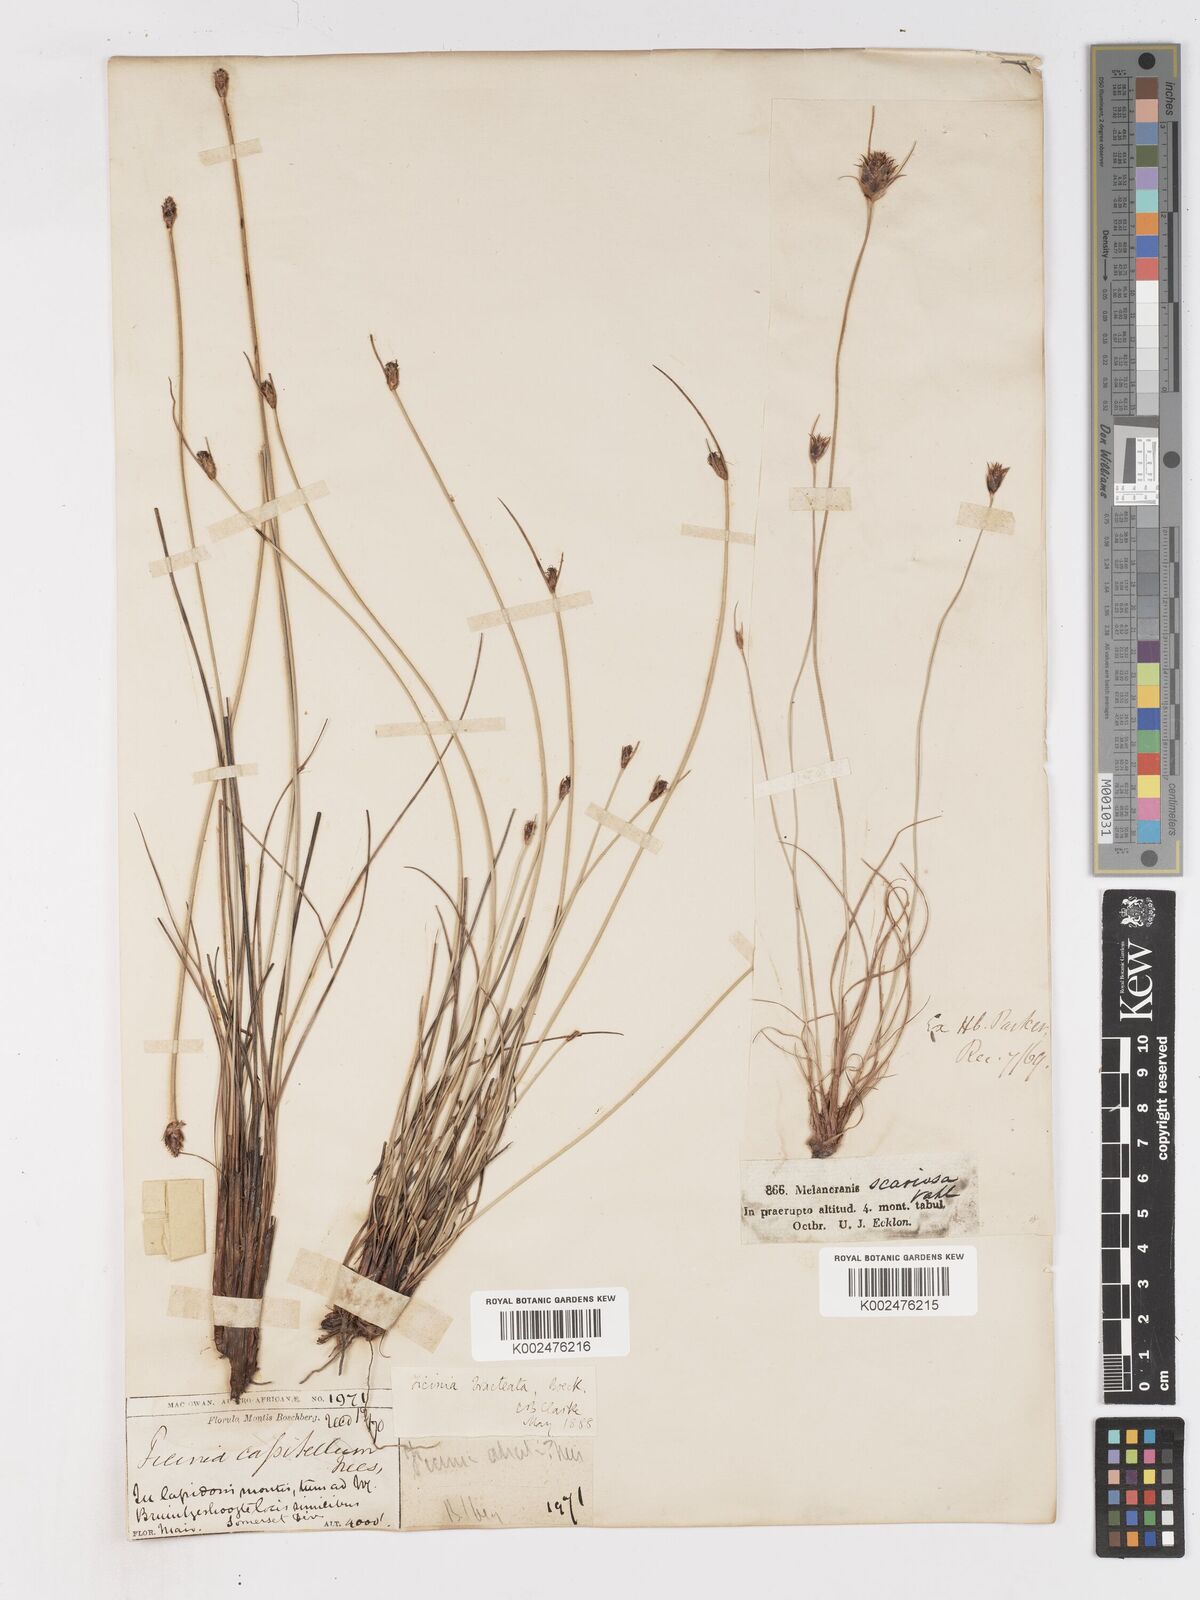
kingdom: Plantae
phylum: Tracheophyta
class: Liliopsida
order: Poales
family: Cyperaceae
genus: Ficinia
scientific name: Ficinia nigrescens
